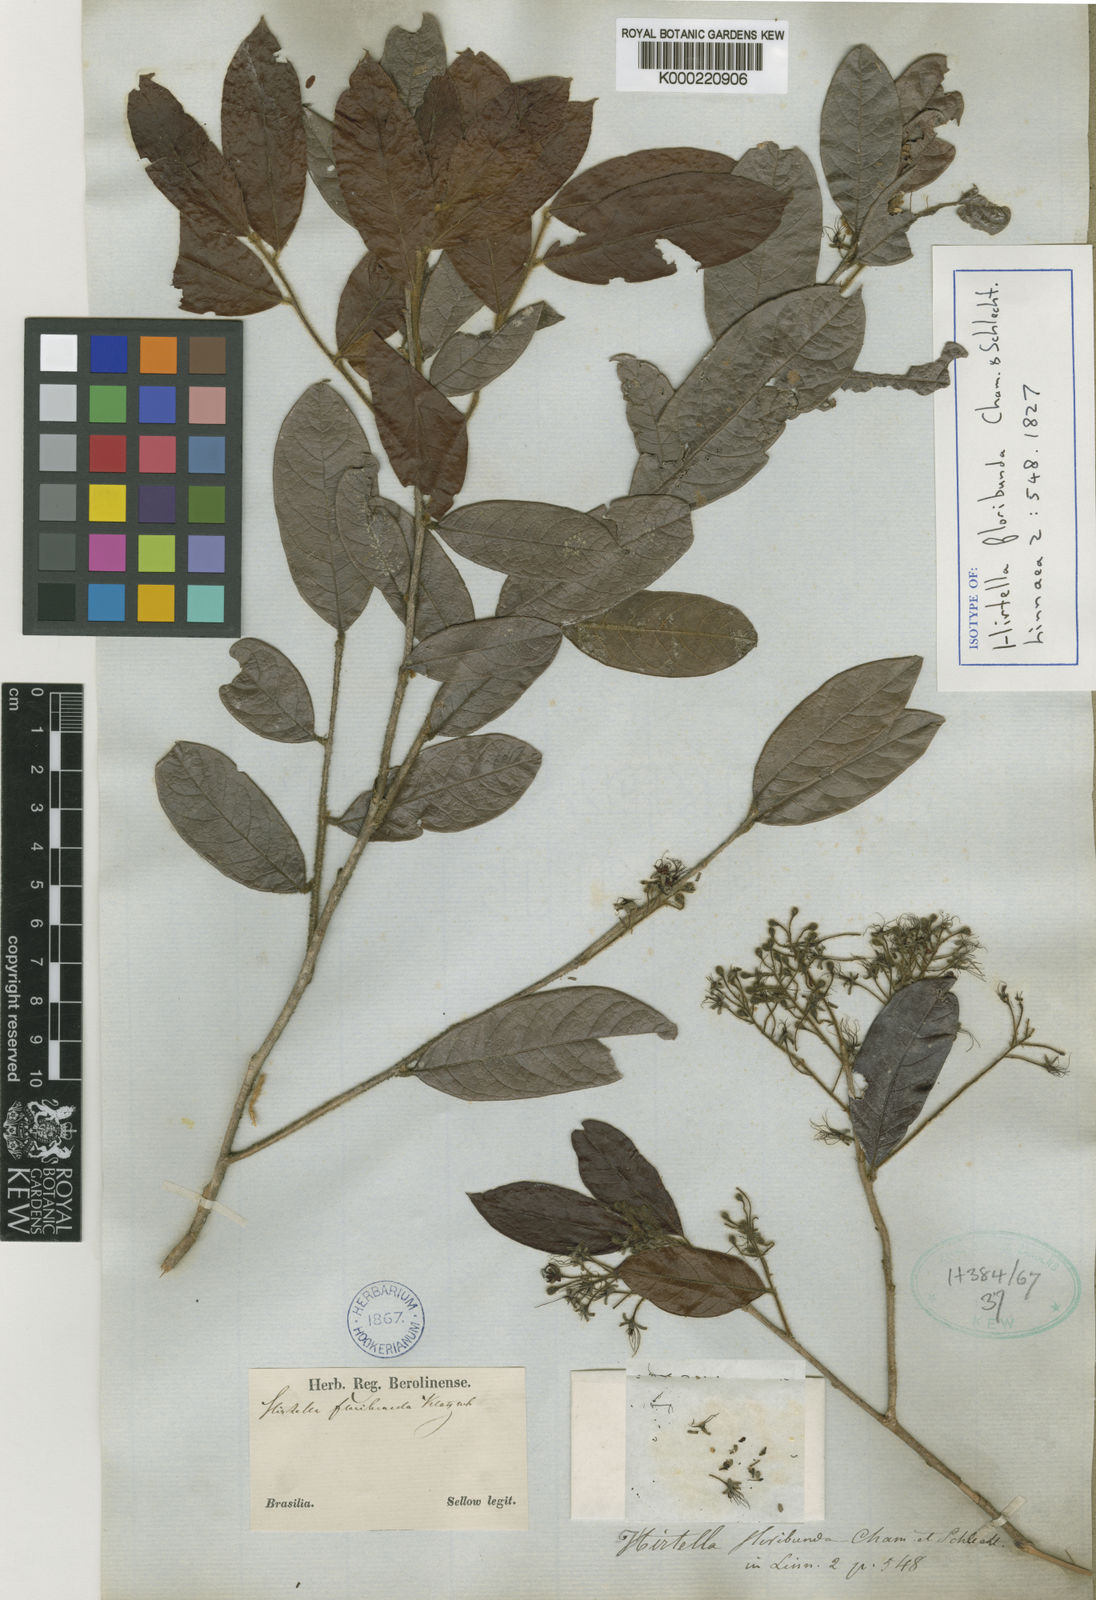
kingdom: Plantae
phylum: Tracheophyta
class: Magnoliopsida
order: Malpighiales
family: Chrysobalanaceae
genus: Hirtella
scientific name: Hirtella floribunda
